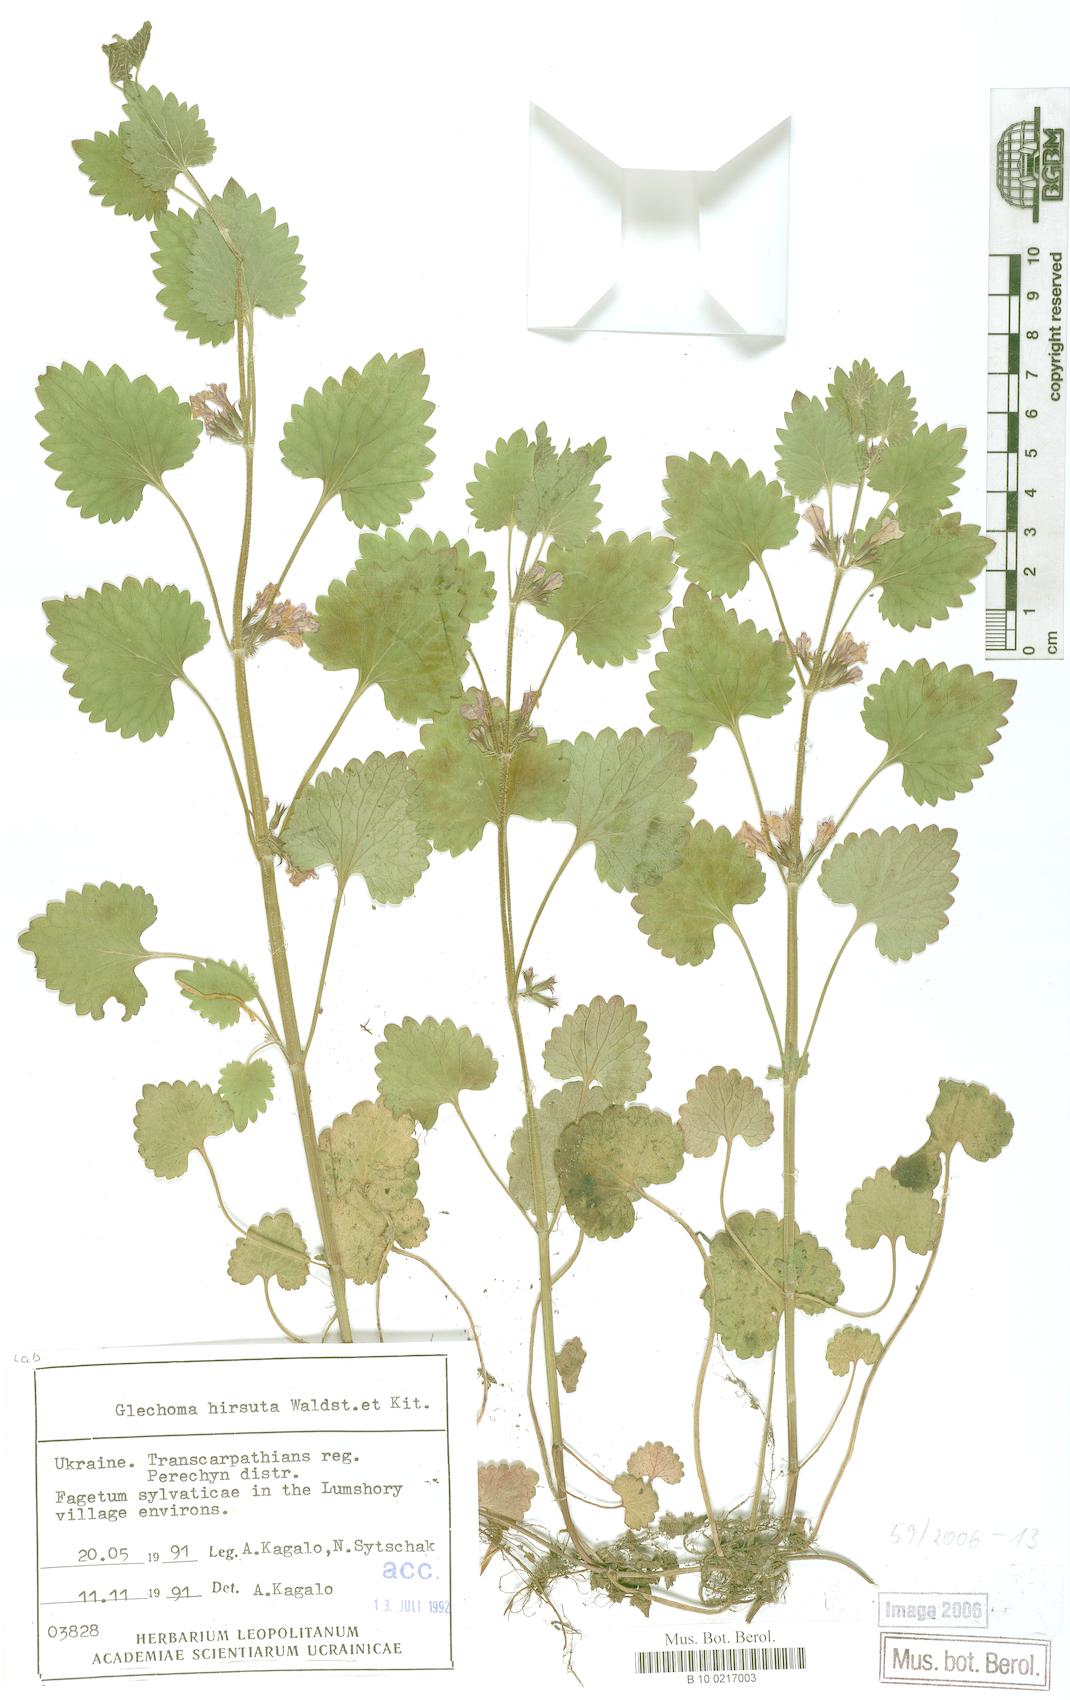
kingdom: Plantae
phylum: Tracheophyta
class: Magnoliopsida
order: Lamiales
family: Lamiaceae
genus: Glechoma
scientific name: Glechoma hirsuta
